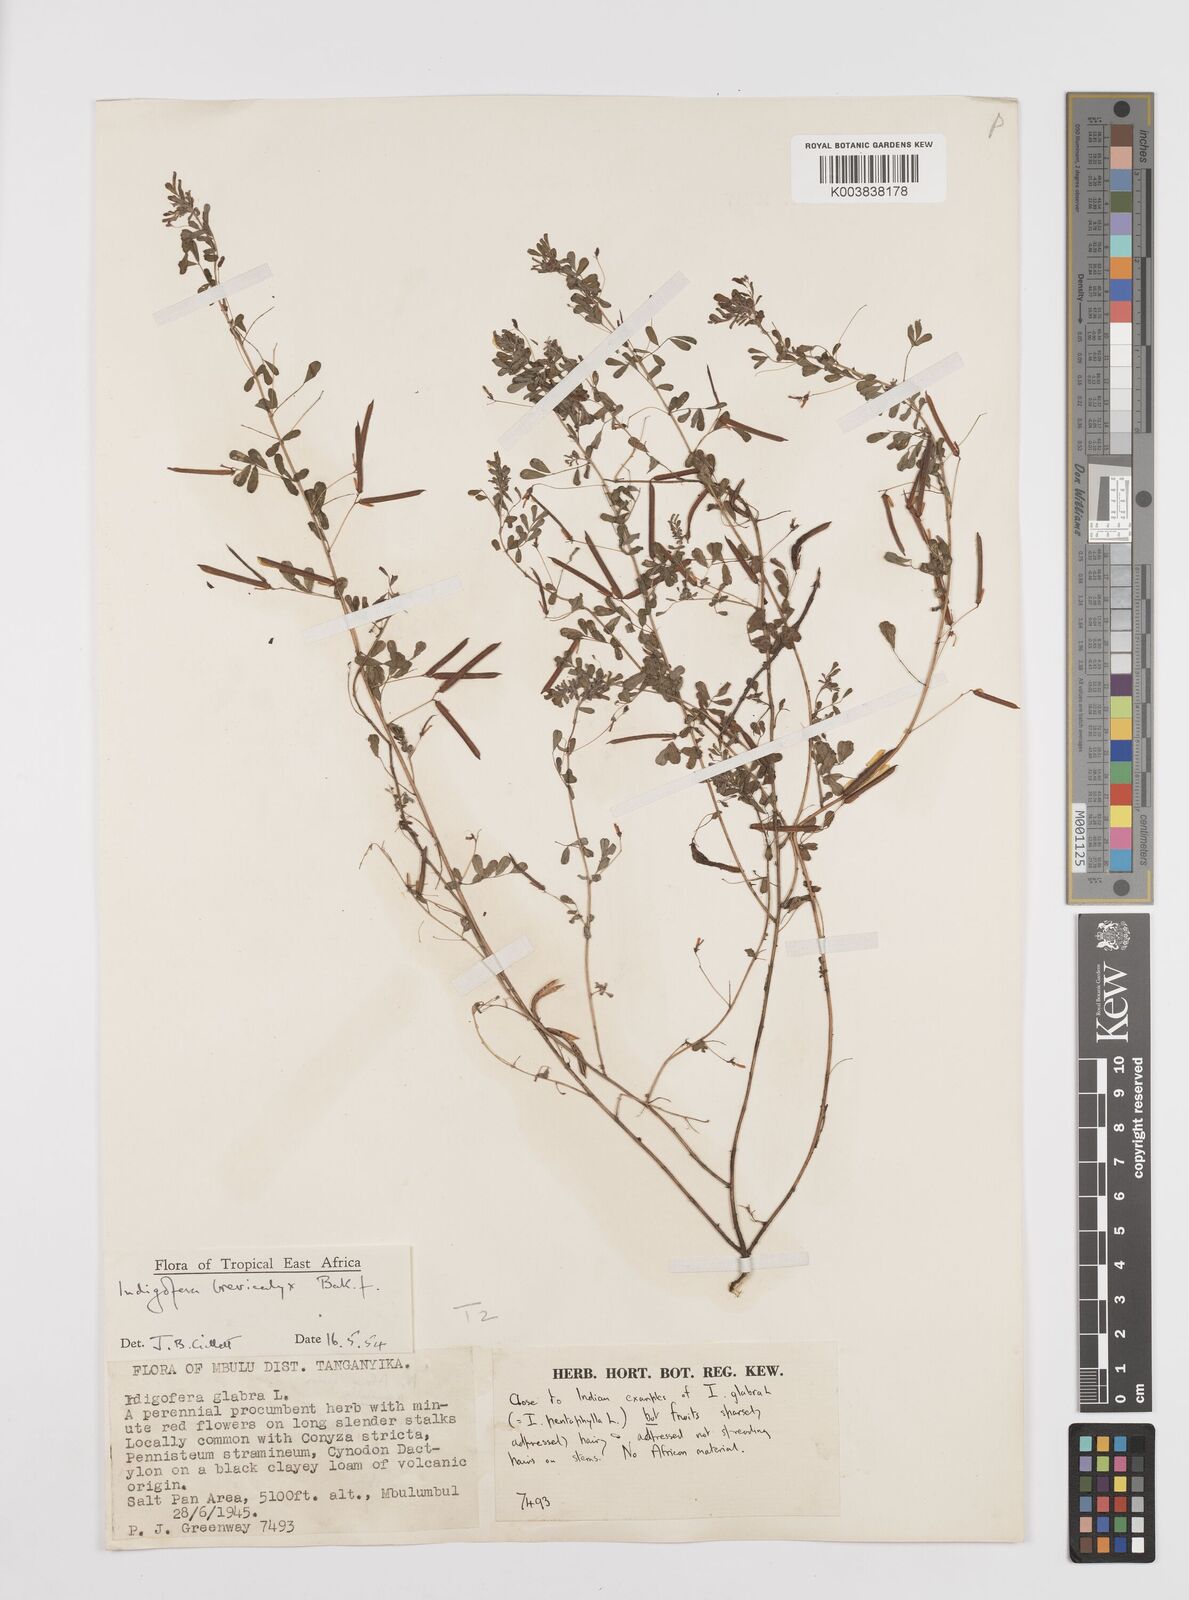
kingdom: Plantae
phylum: Tracheophyta
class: Magnoliopsida
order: Fabales
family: Fabaceae
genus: Indigofera
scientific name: Indigofera brevicalyx
